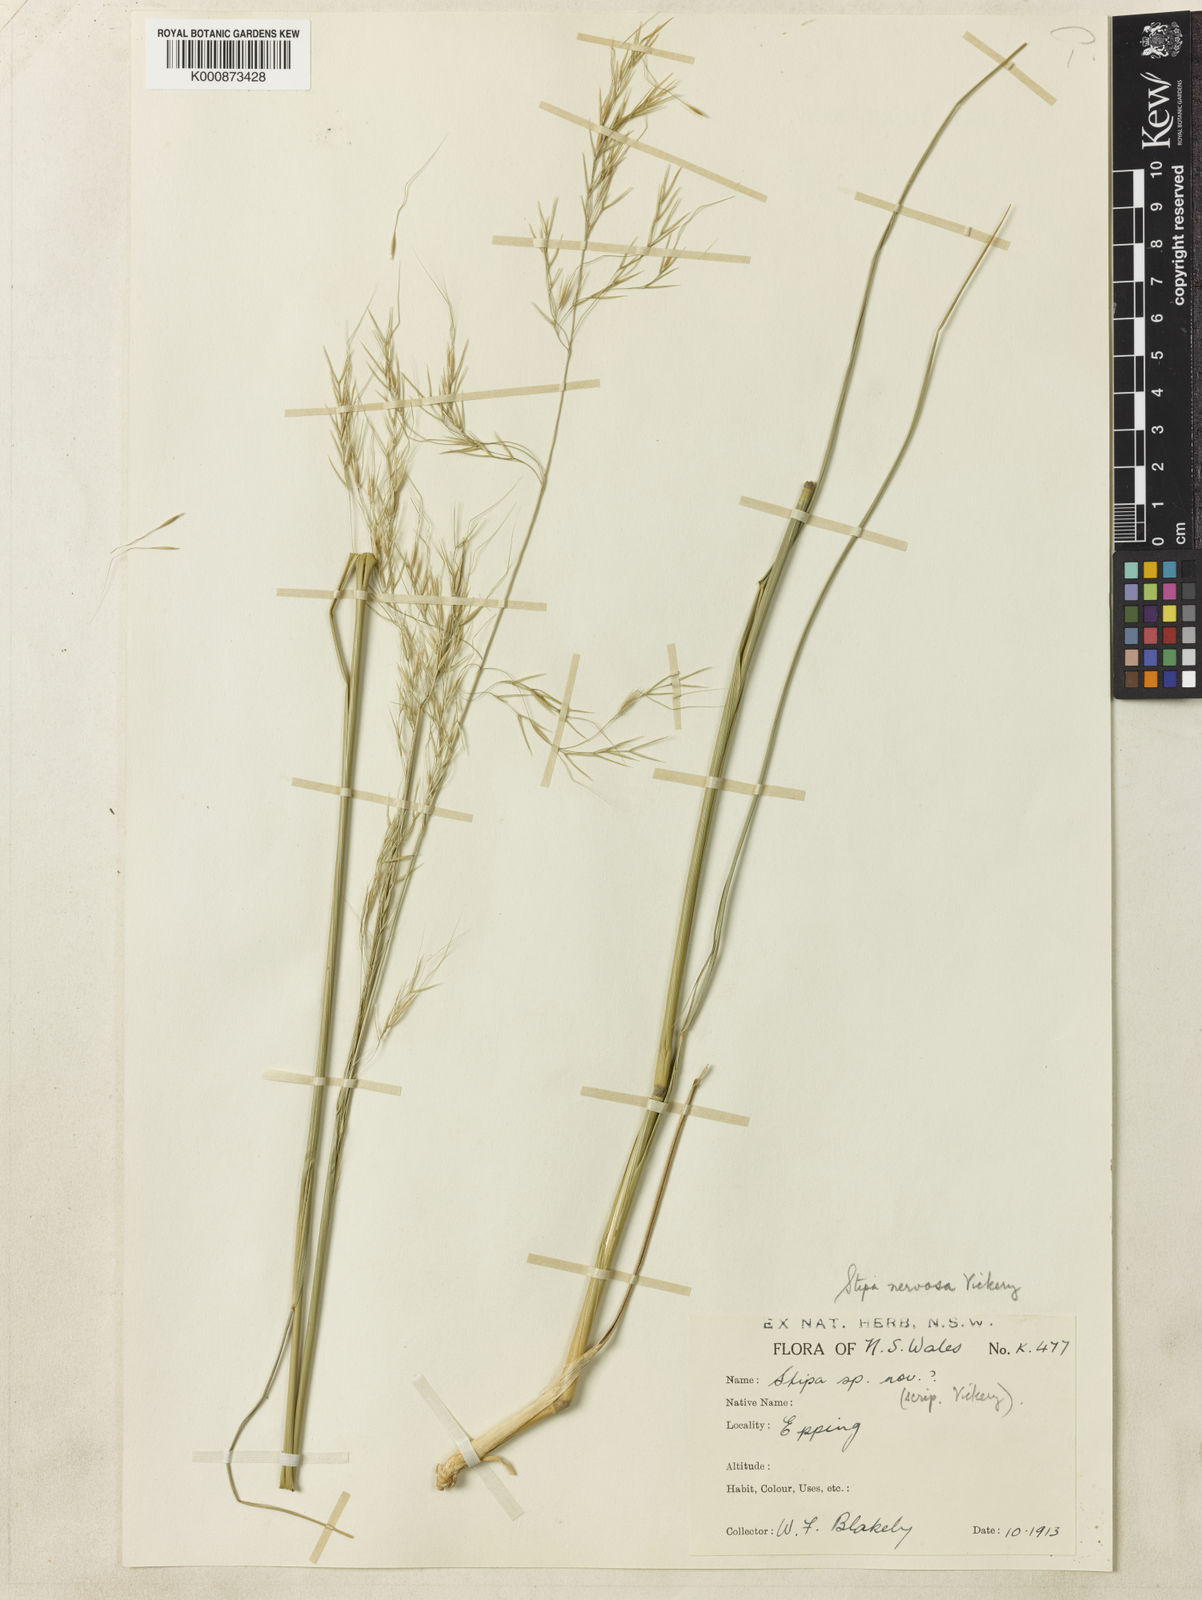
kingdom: Plantae
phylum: Tracheophyta
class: Liliopsida
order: Poales
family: Poaceae
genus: Austrostipa
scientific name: Austrostipa rudis
